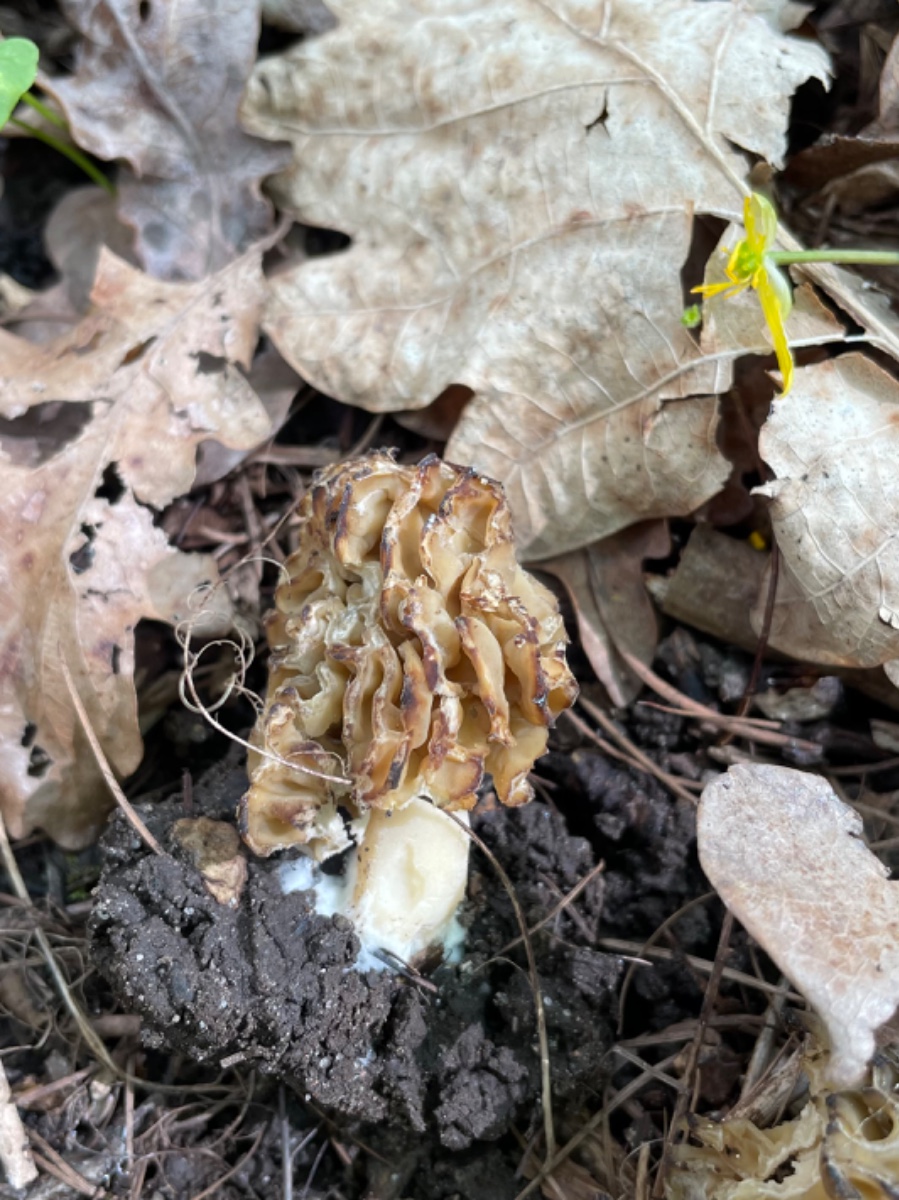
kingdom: Fungi
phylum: Ascomycota
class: Pezizomycetes
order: Pezizales
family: Morchellaceae
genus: Morchella
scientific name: Morchella esculenta
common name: spiselig morkel
